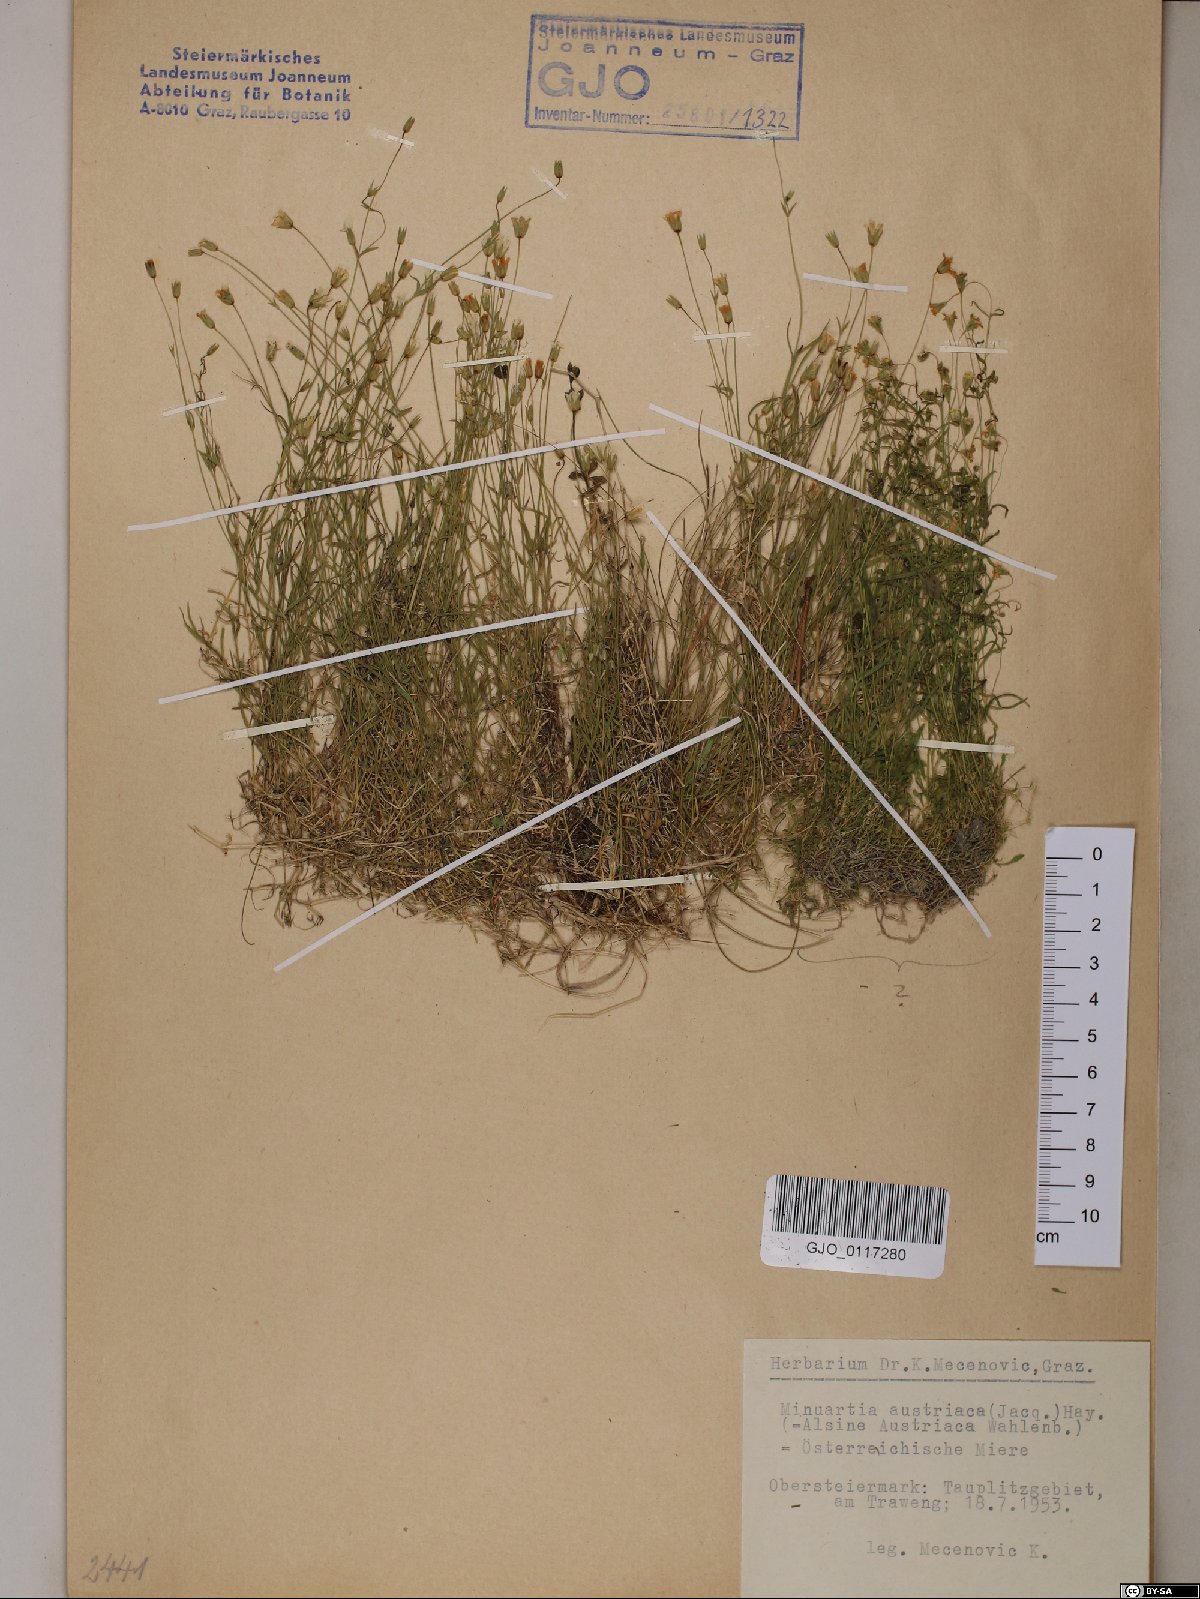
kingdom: Plantae
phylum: Tracheophyta
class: Magnoliopsida
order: Caryophyllales
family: Caryophyllaceae
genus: Sabulina
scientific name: Sabulina austriaca
